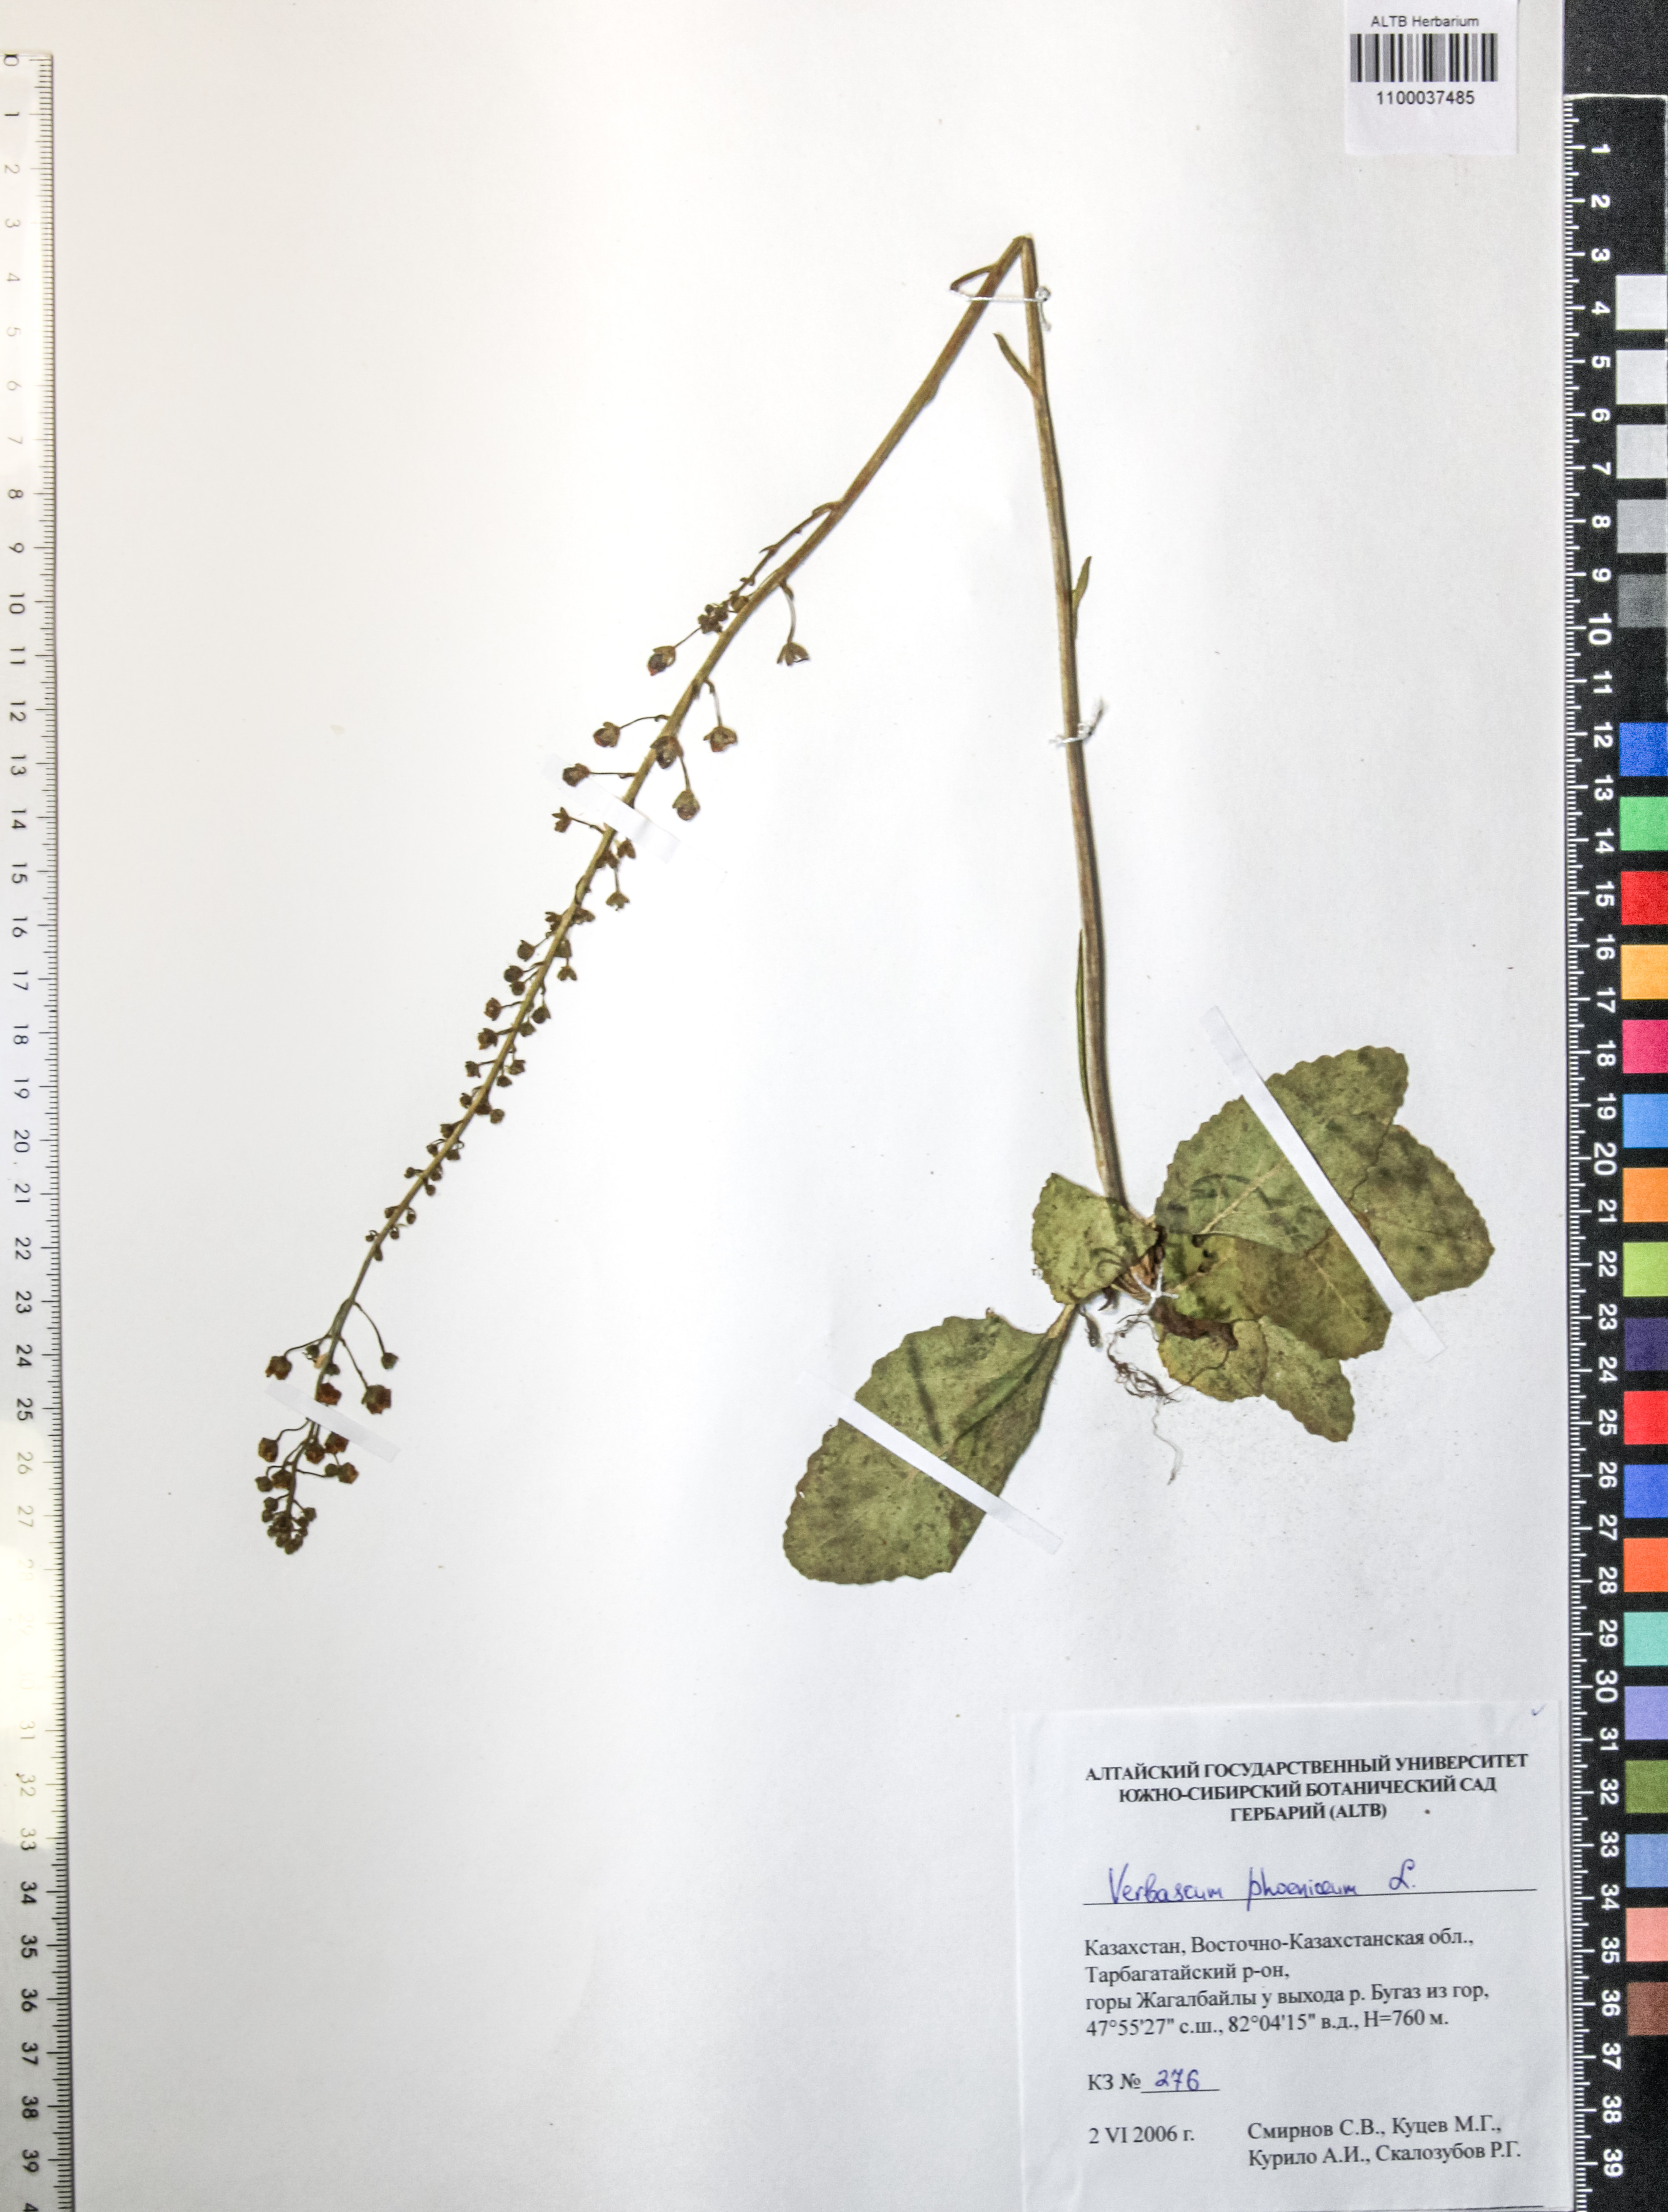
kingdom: Plantae
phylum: Tracheophyta
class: Magnoliopsida
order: Lamiales
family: Scrophulariaceae
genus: Verbascum
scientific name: Verbascum phoeniceum
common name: Purple mullein
